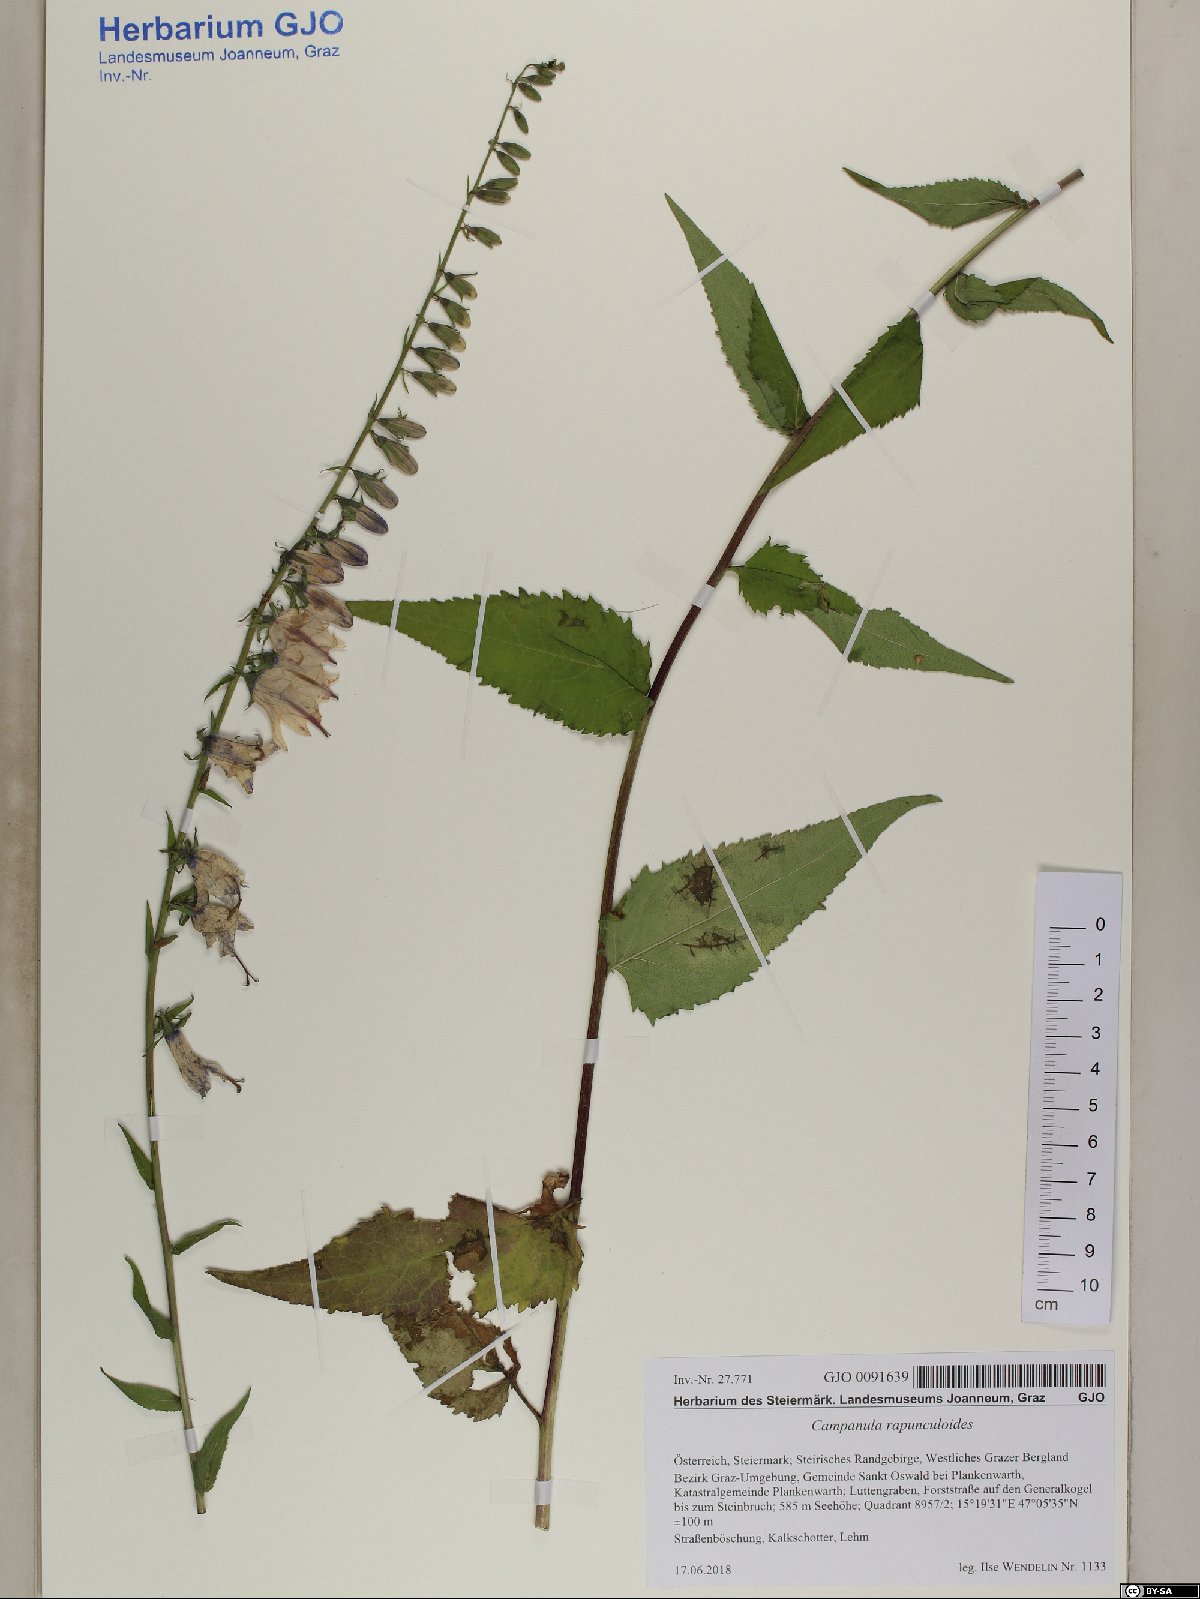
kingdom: Plantae
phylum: Tracheophyta
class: Magnoliopsida
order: Asterales
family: Campanulaceae
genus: Campanula
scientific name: Campanula rapunculoides
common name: Creeping bellflower
